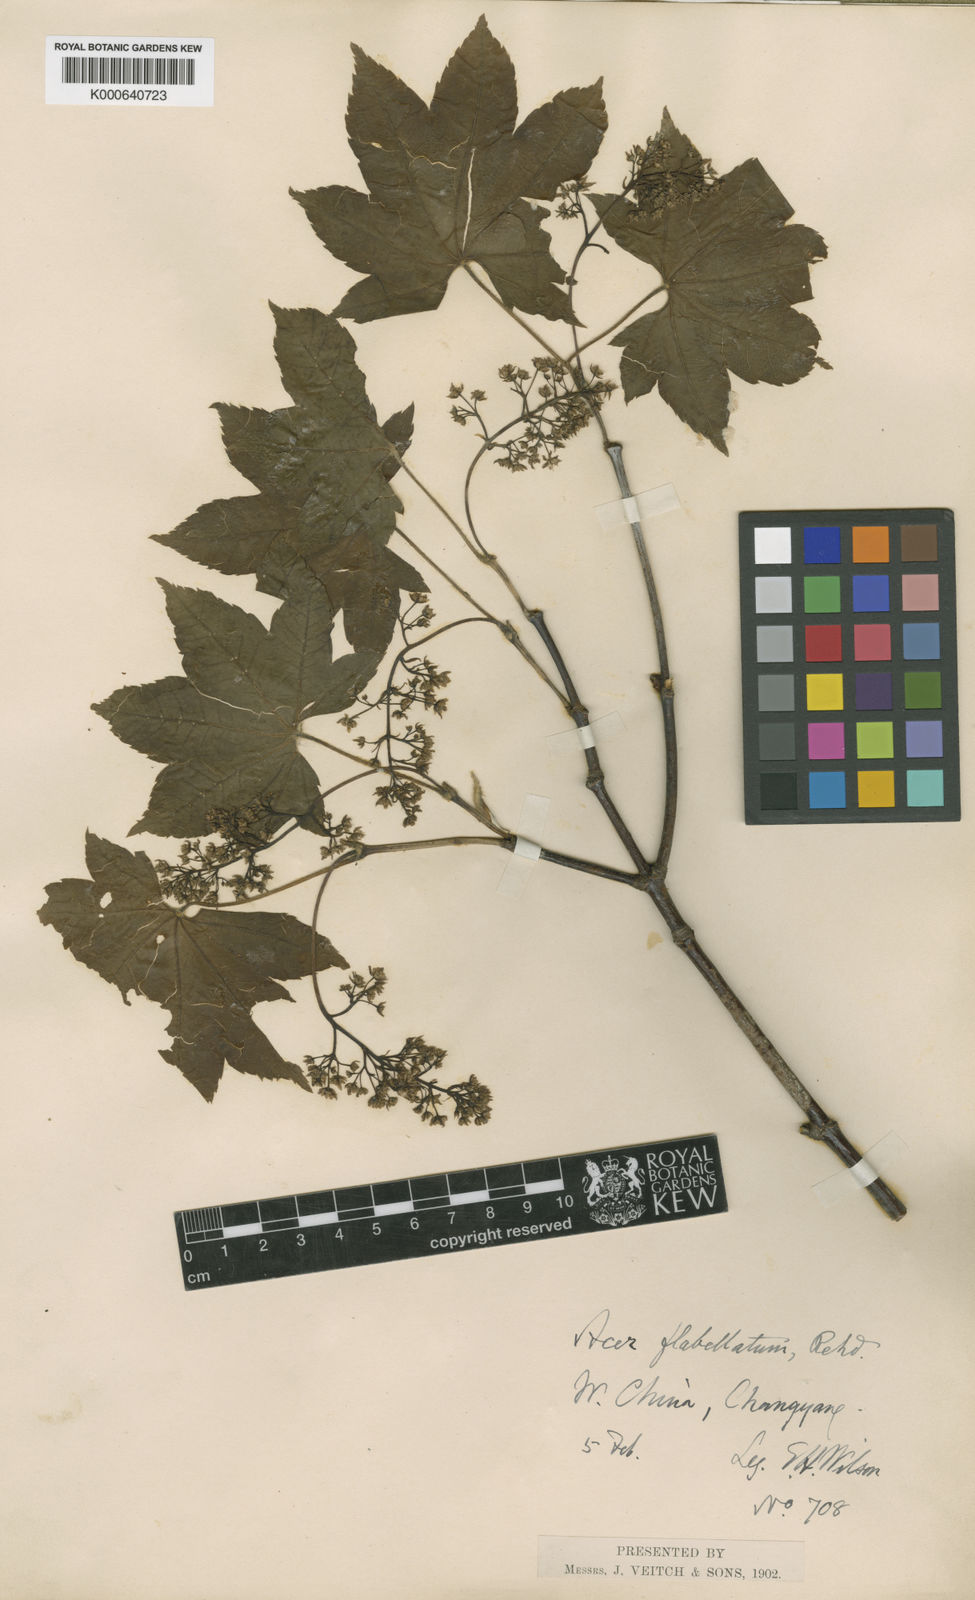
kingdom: Plantae
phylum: Tracheophyta
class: Magnoliopsida
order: Sapindales
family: Sapindaceae
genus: Acer
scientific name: Acer campbellii
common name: Campbell's maple
